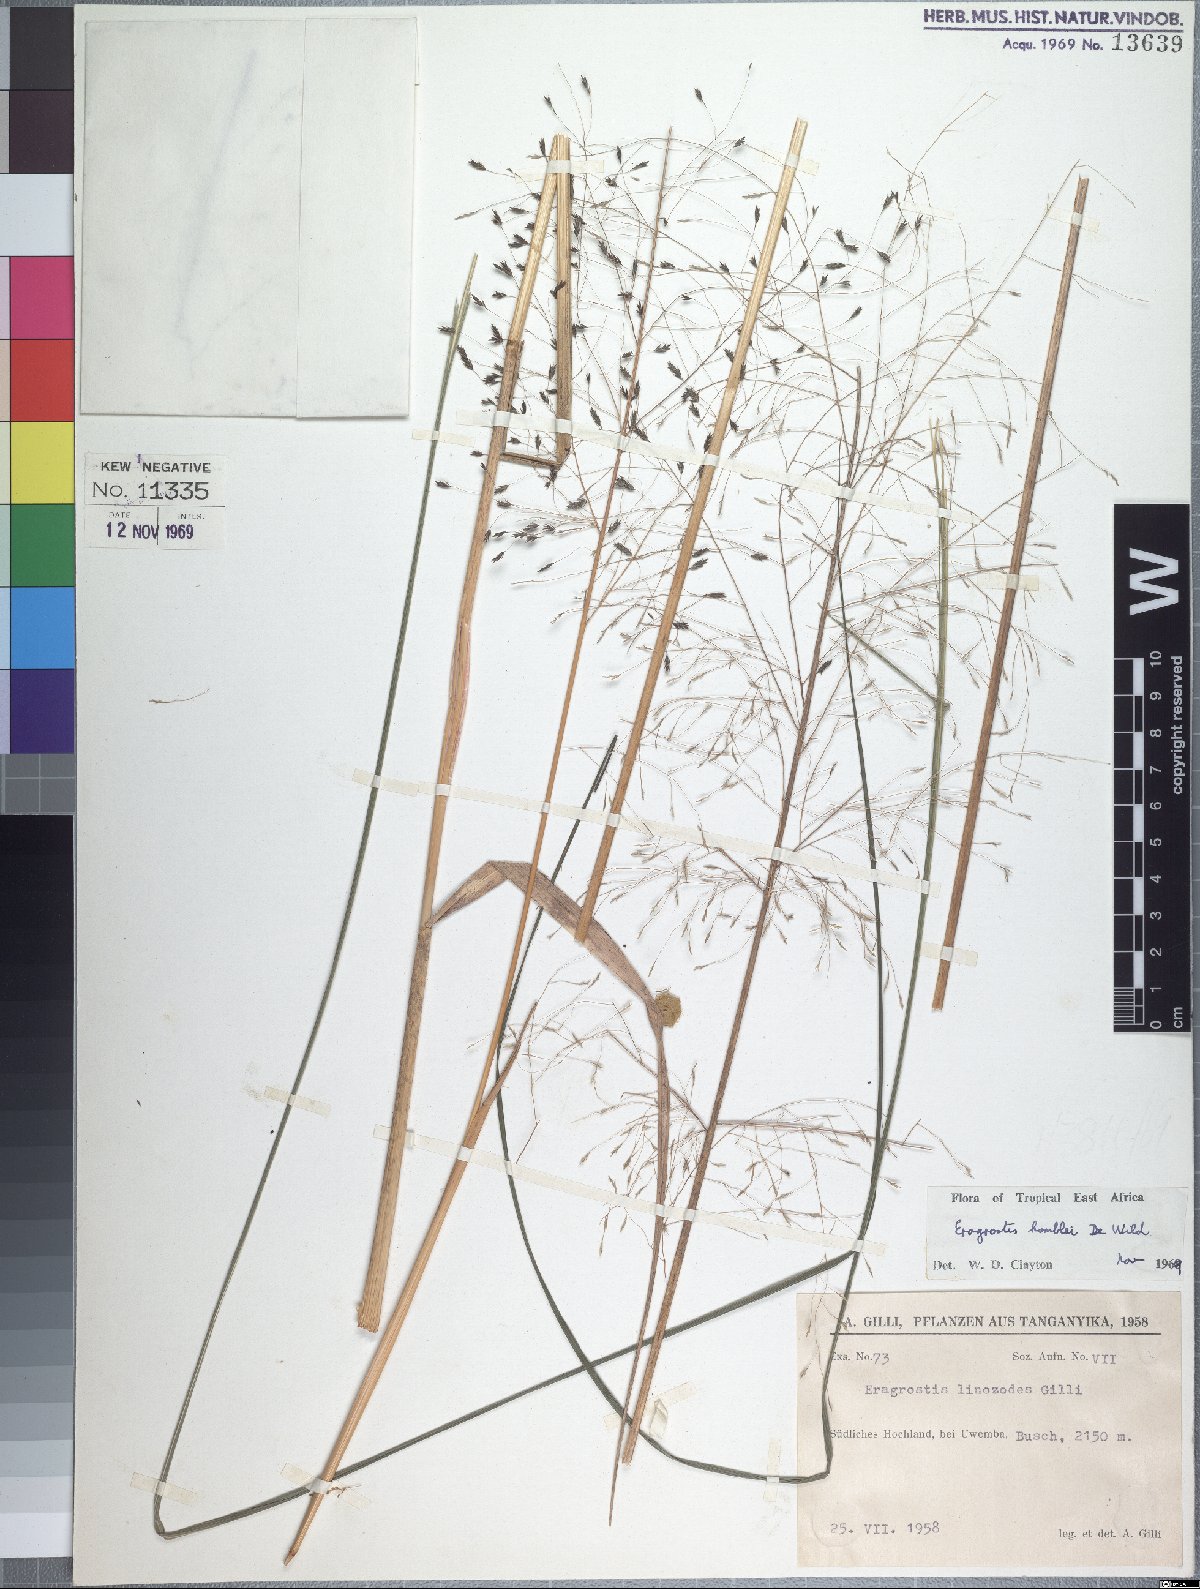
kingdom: Plantae
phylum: Tracheophyta
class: Liliopsida
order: Poales
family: Poaceae
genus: Eragrostis
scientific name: Eragrostis homblei
